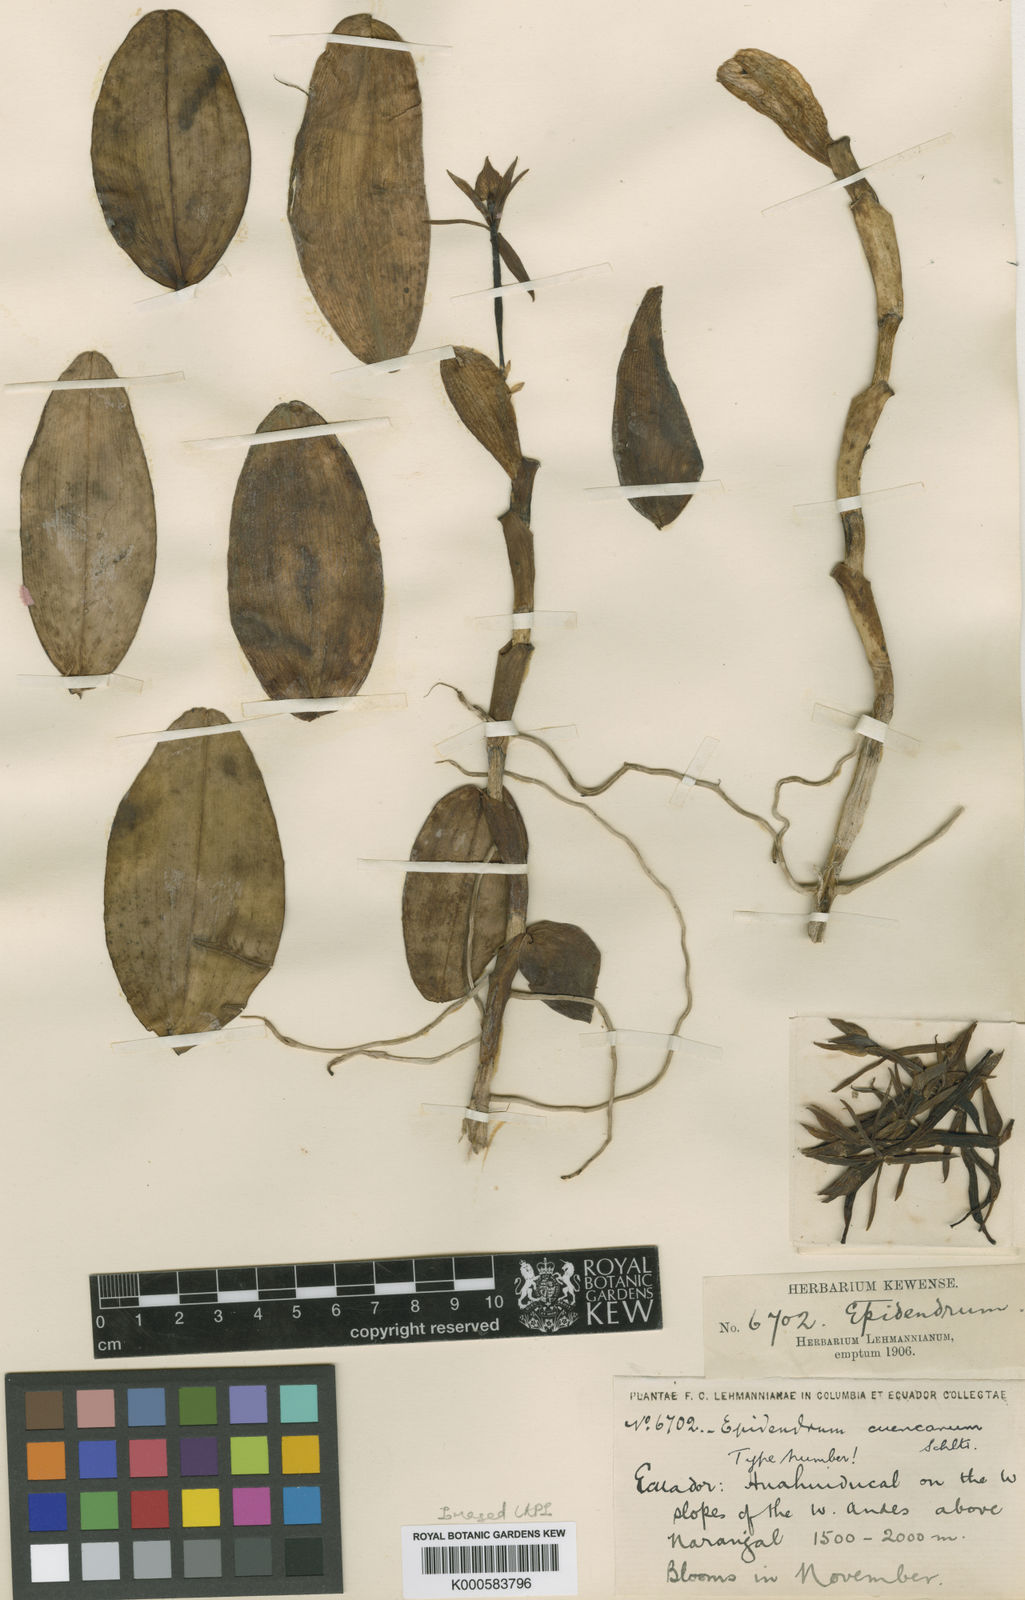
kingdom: Plantae
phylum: Tracheophyta
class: Liliopsida
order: Asparagales
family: Orchidaceae
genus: Epidendrum
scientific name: Epidendrum cuencanum
